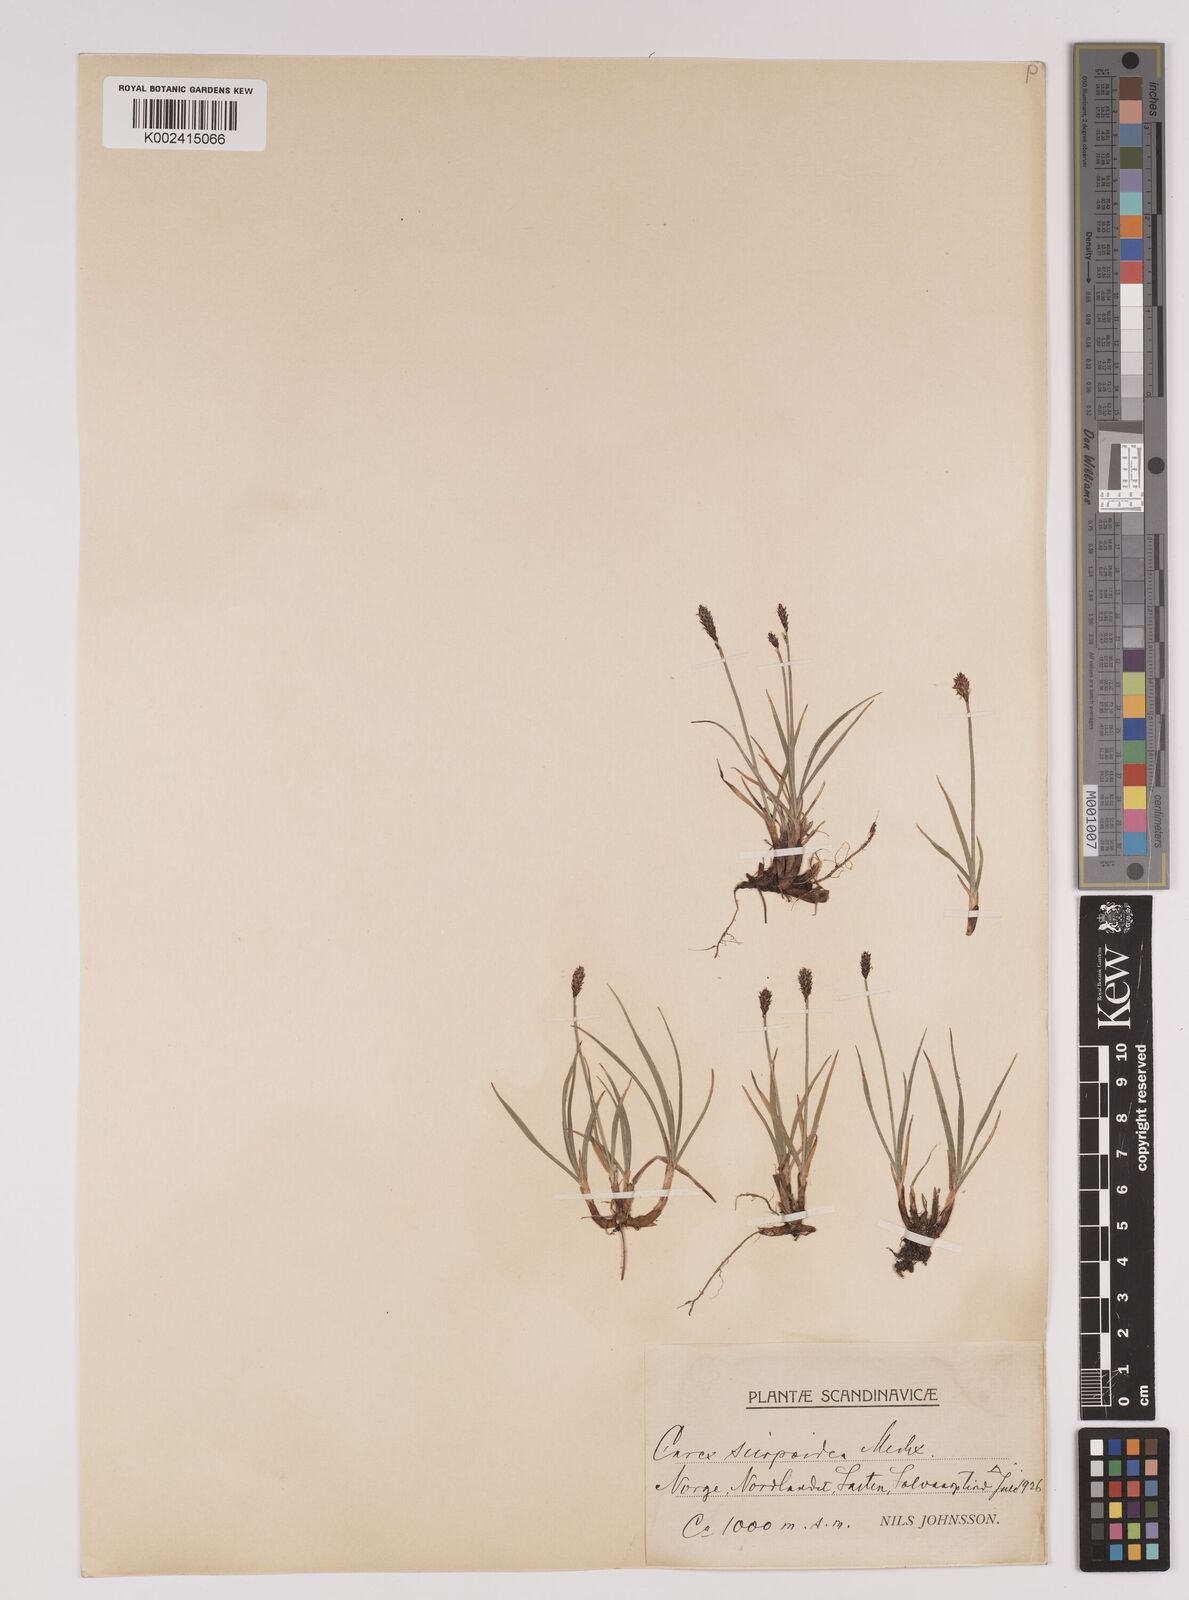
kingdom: Plantae
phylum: Tracheophyta
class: Liliopsida
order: Poales
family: Cyperaceae
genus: Carex
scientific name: Carex
